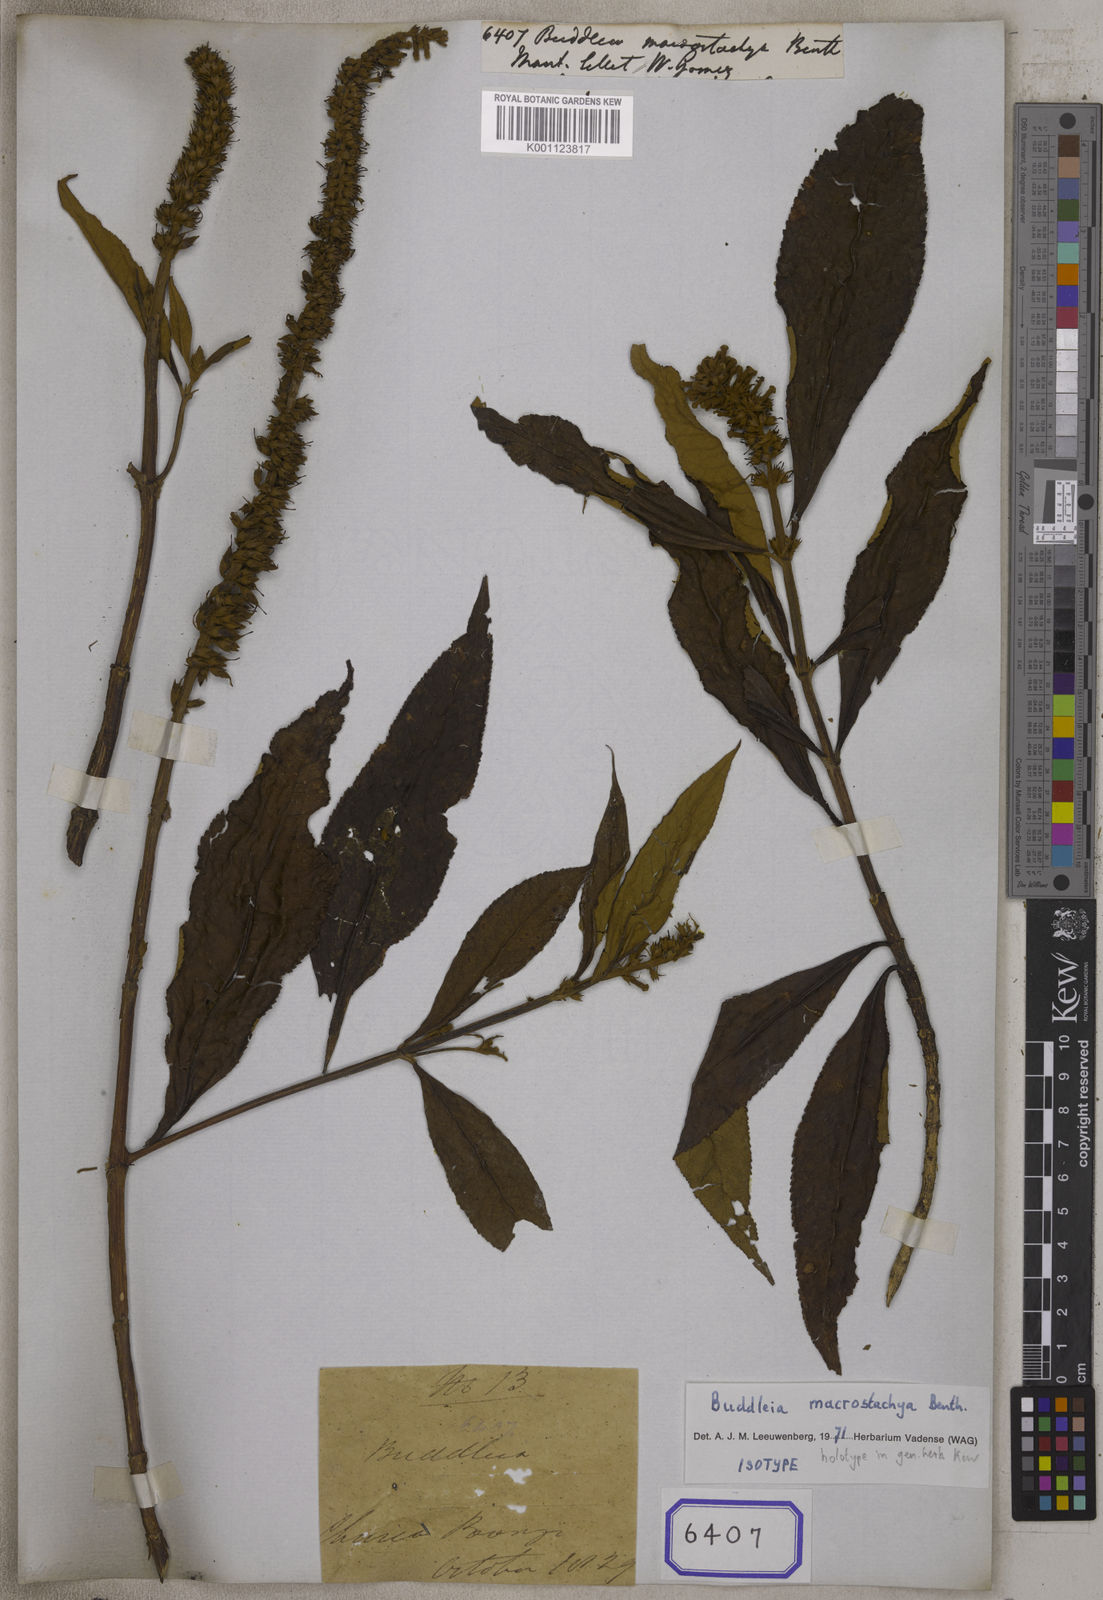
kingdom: Plantae
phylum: Tracheophyta
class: Magnoliopsida
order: Lamiales
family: Scrophulariaceae
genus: Buddleja
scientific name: Buddleja macrostachya
